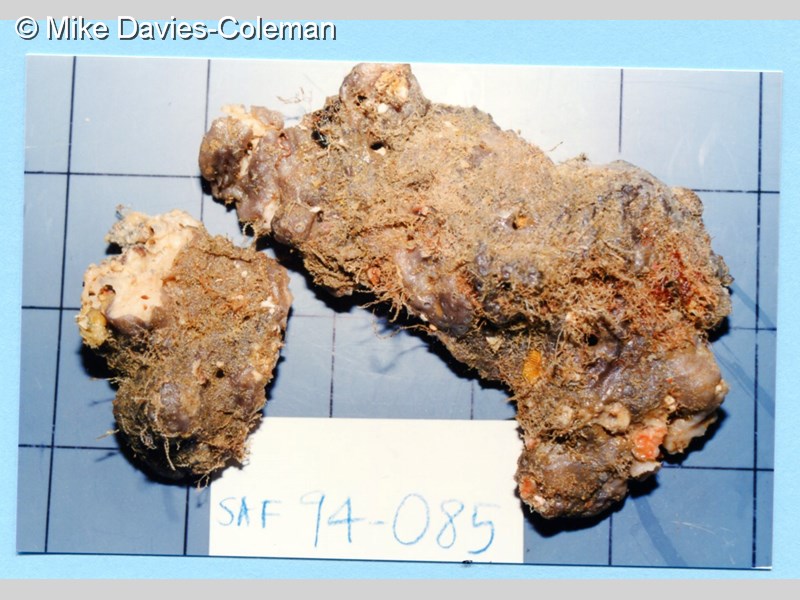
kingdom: Animalia
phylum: Porifera
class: Demospongiae
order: Tetractinellida
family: Geodiidae
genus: Erylus
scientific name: Erylus
